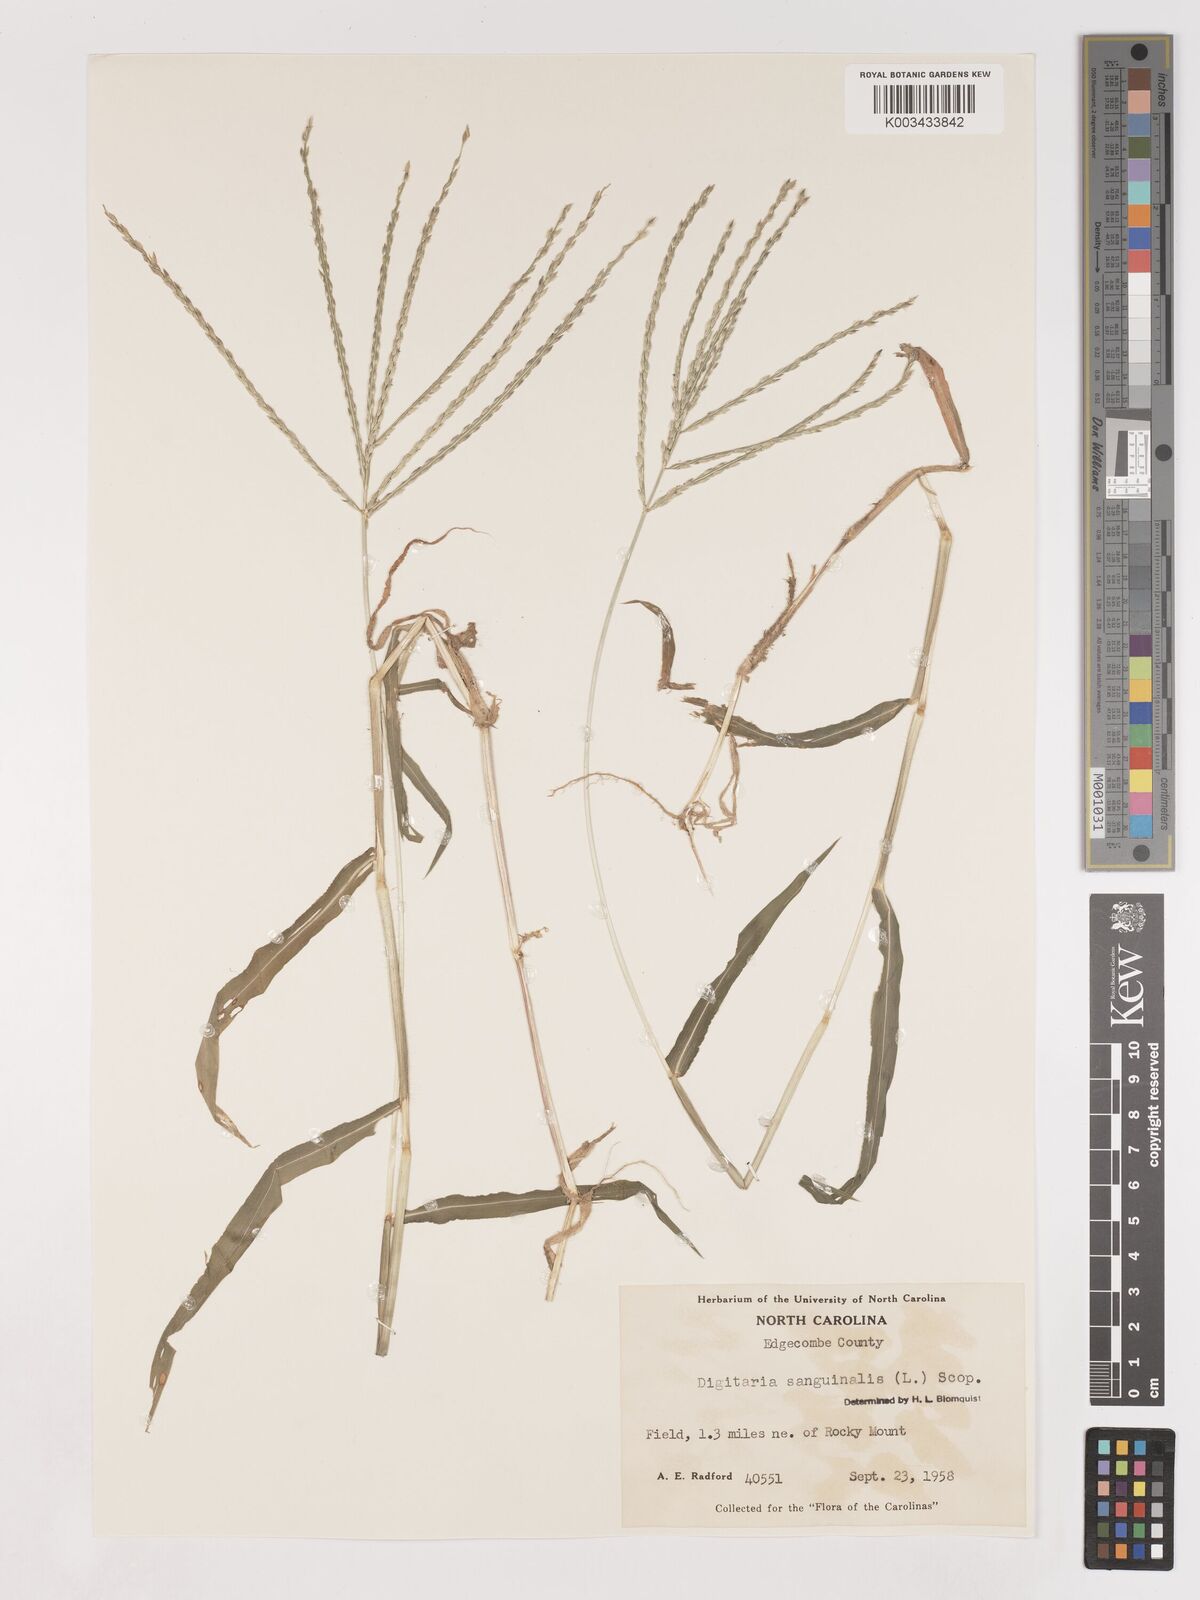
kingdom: Plantae
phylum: Tracheophyta
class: Liliopsida
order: Poales
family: Poaceae
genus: Digitaria
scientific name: Digitaria ciliaris
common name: Tropical finger-grass
